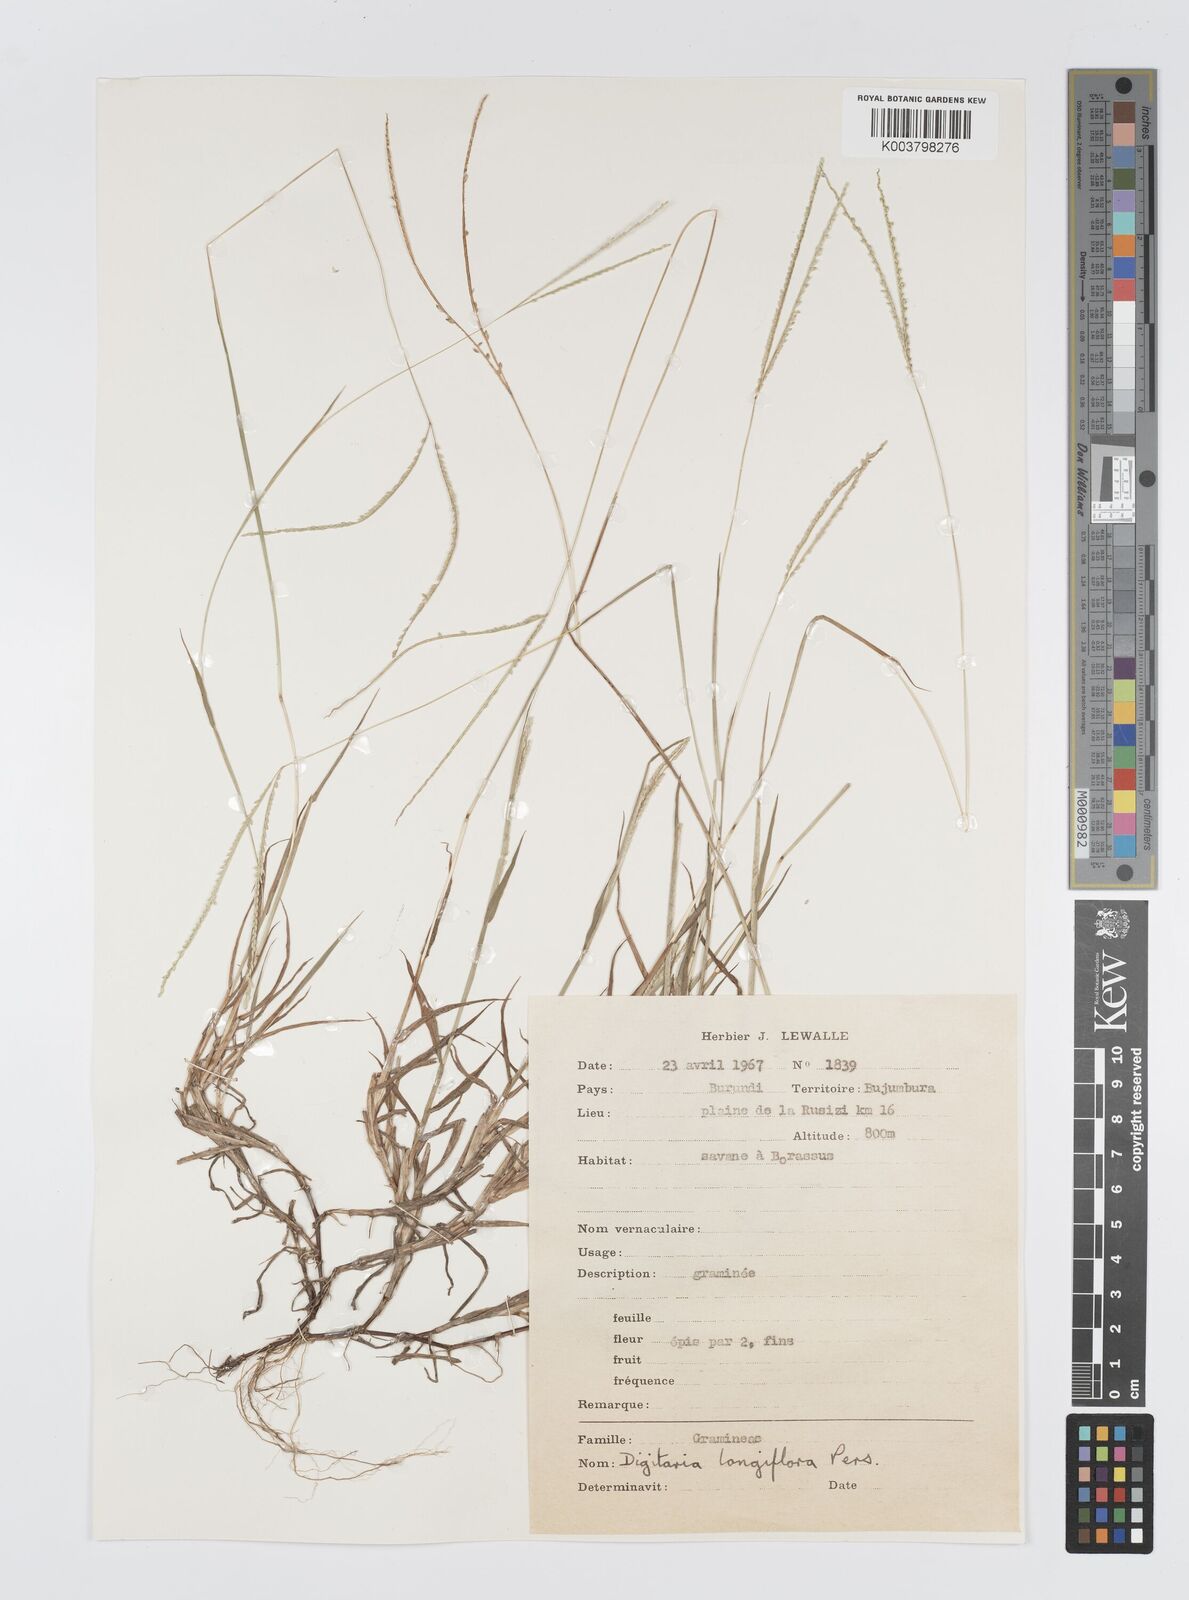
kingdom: Plantae
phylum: Tracheophyta
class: Liliopsida
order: Poales
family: Poaceae
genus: Digitaria
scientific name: Digitaria longiflora
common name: Wire crabgrass
